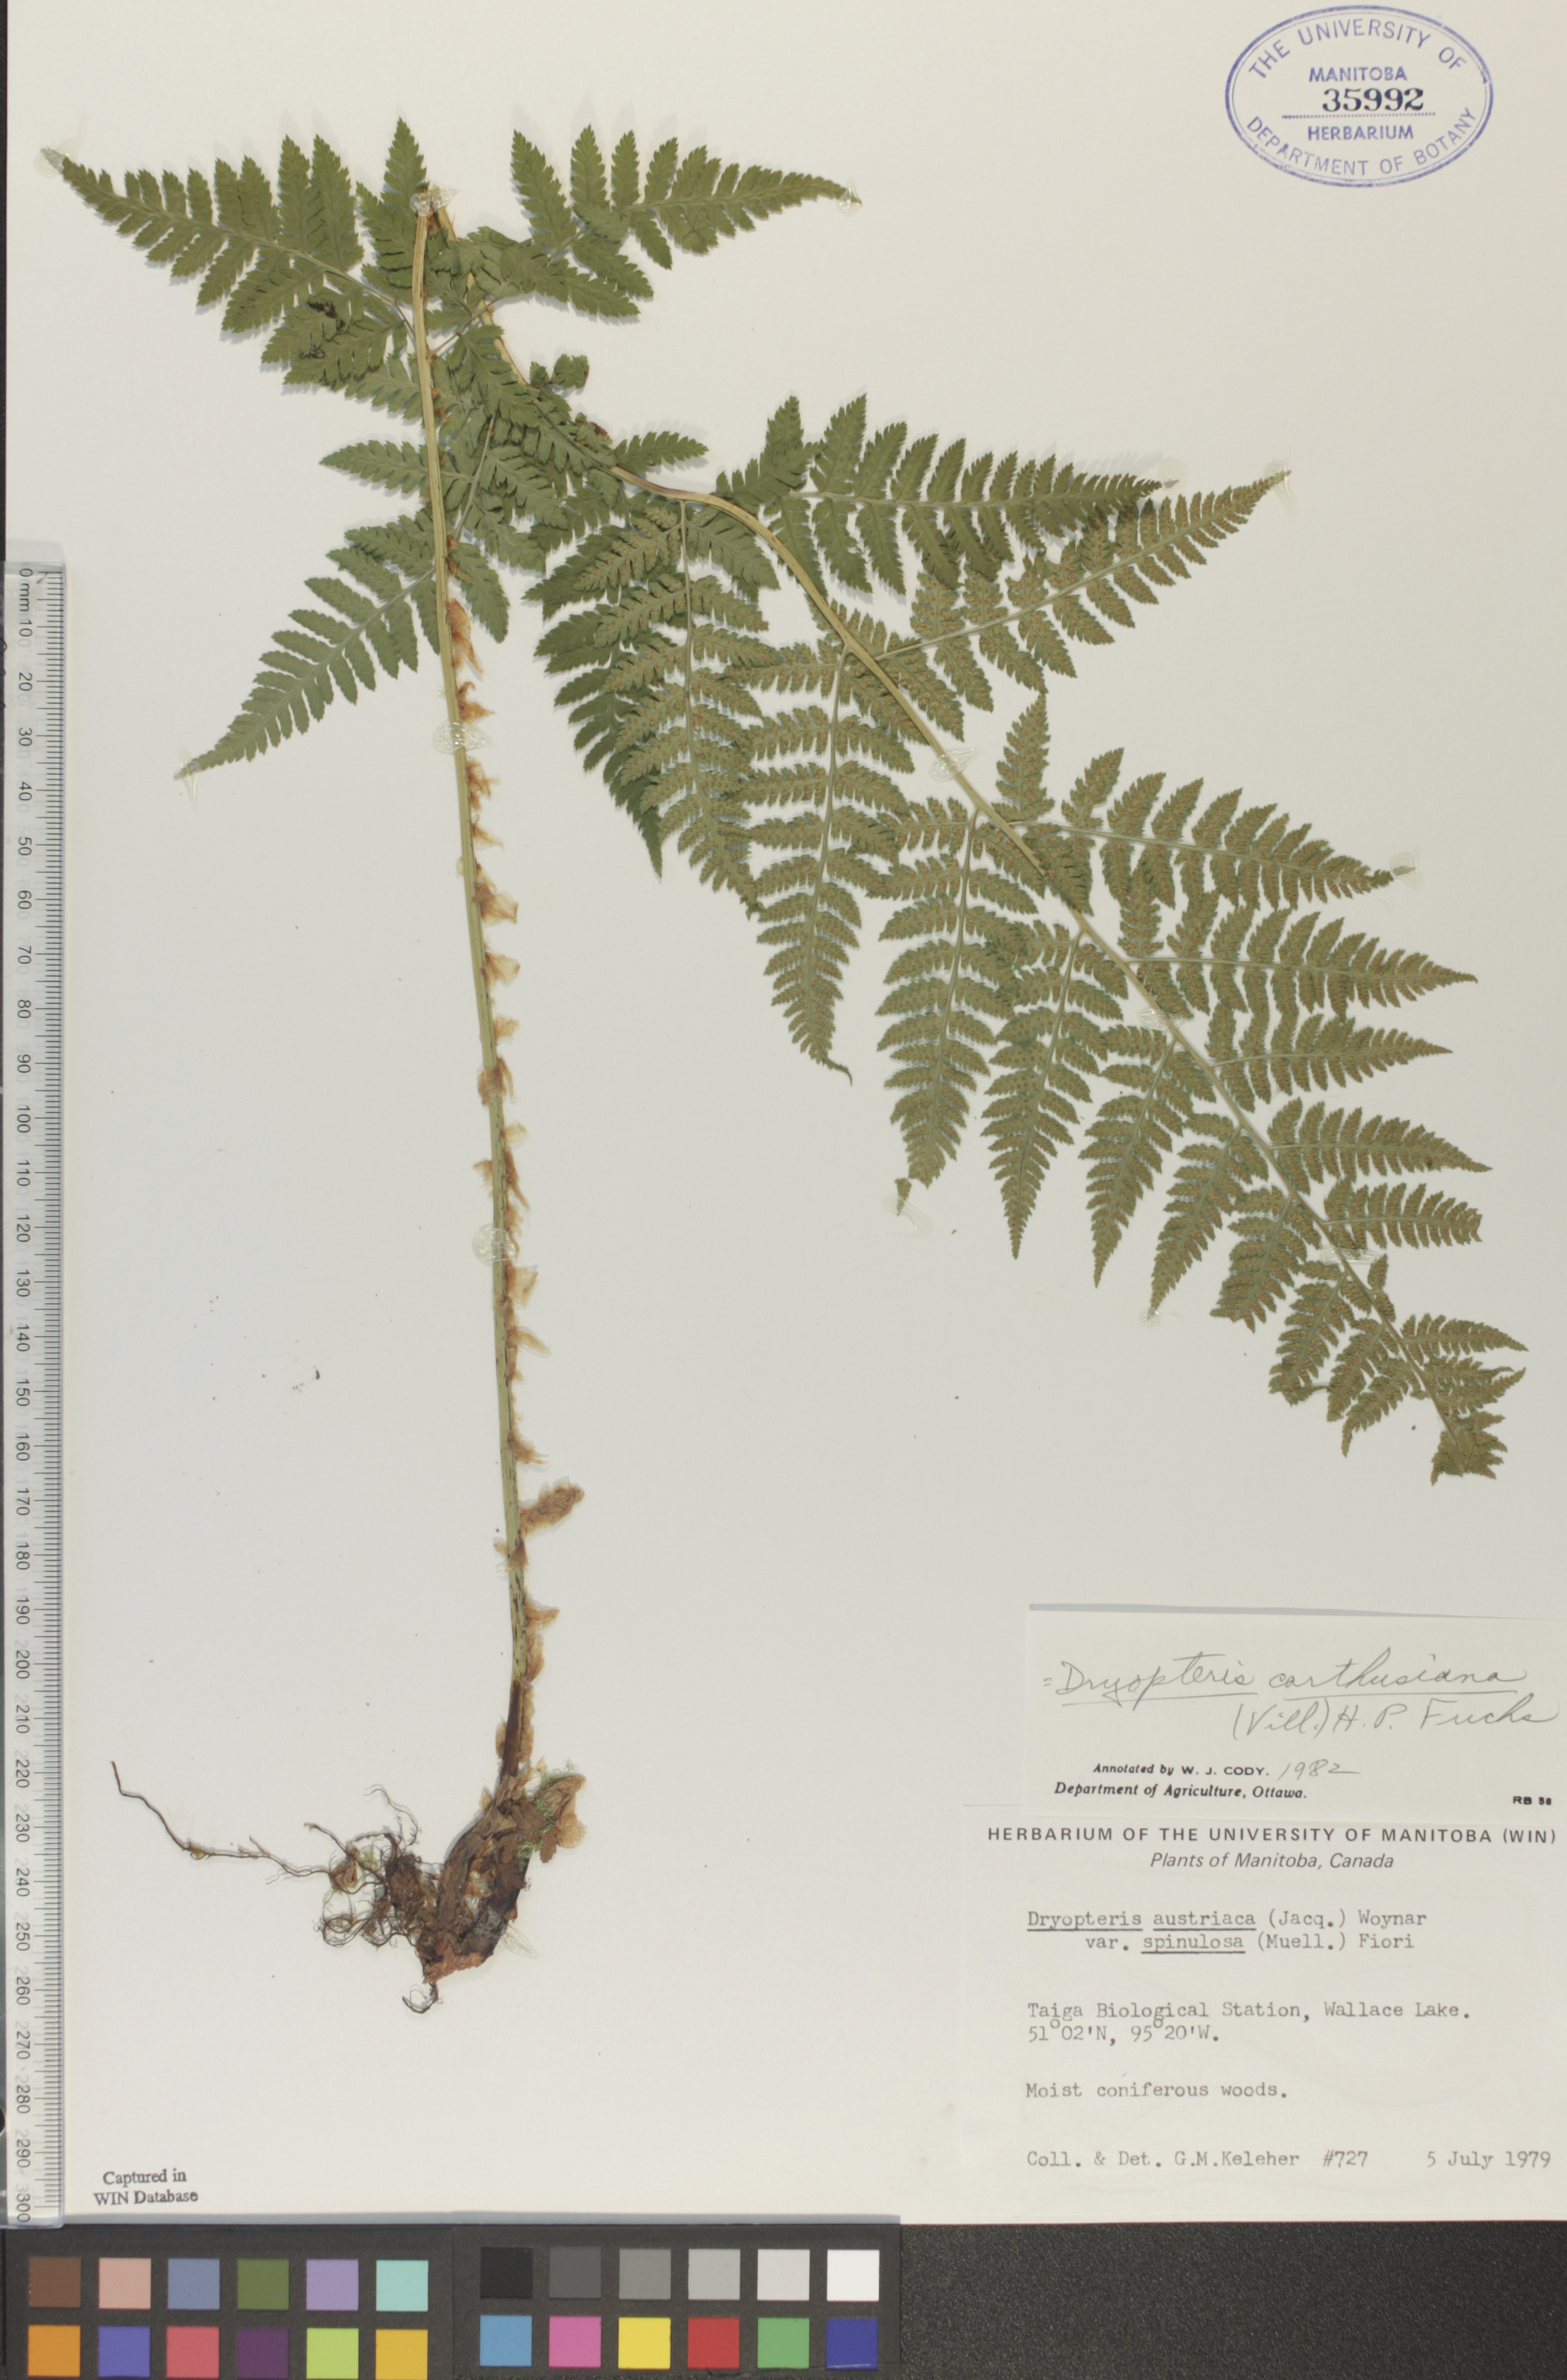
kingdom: Plantae
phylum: Tracheophyta
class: Polypodiopsida
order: Polypodiales
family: Dryopteridaceae
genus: Dryopteris
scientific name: Dryopteris carthusiana
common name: Narrow buckler-fern
